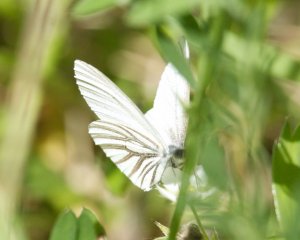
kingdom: Animalia
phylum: Arthropoda
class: Insecta
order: Lepidoptera
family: Pieridae
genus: Pieris
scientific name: Pieris oleracea
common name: Mustard White
